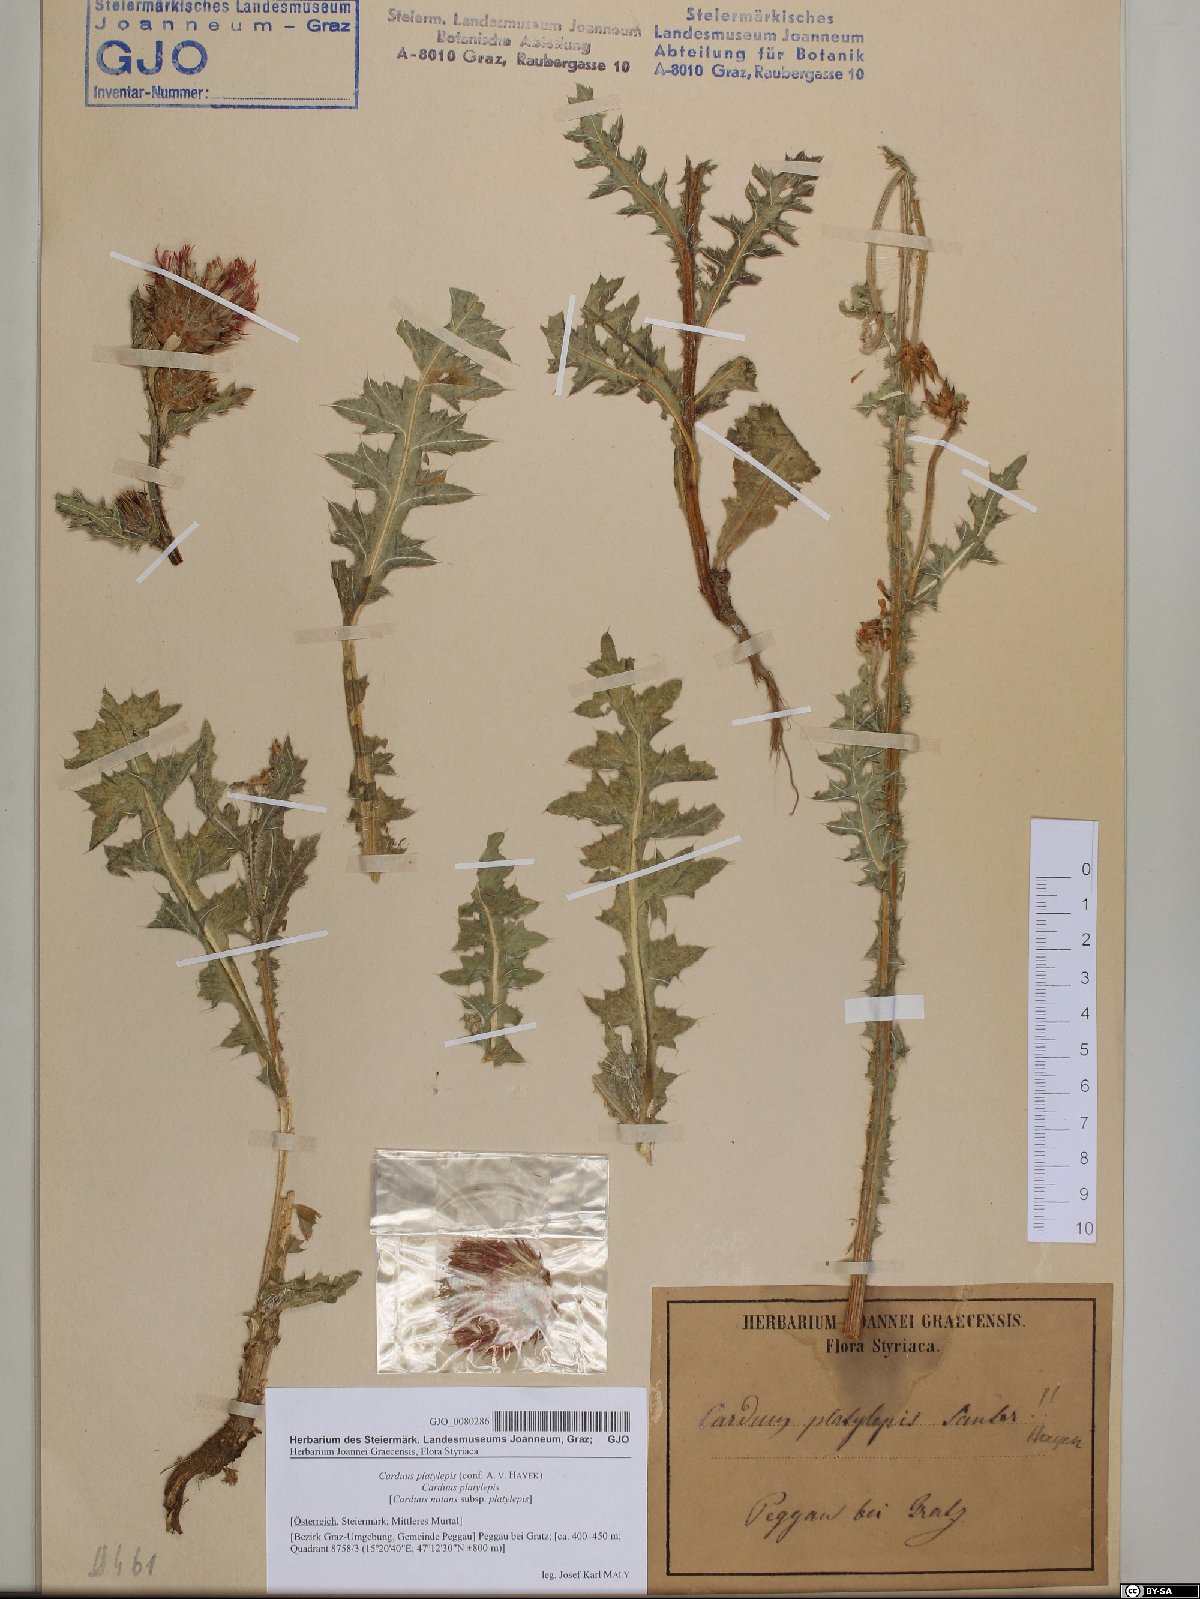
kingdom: Plantae
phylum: Tracheophyta
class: Magnoliopsida
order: Asterales
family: Asteraceae
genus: Carduus
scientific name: Carduus nutans
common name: Musk thistle
